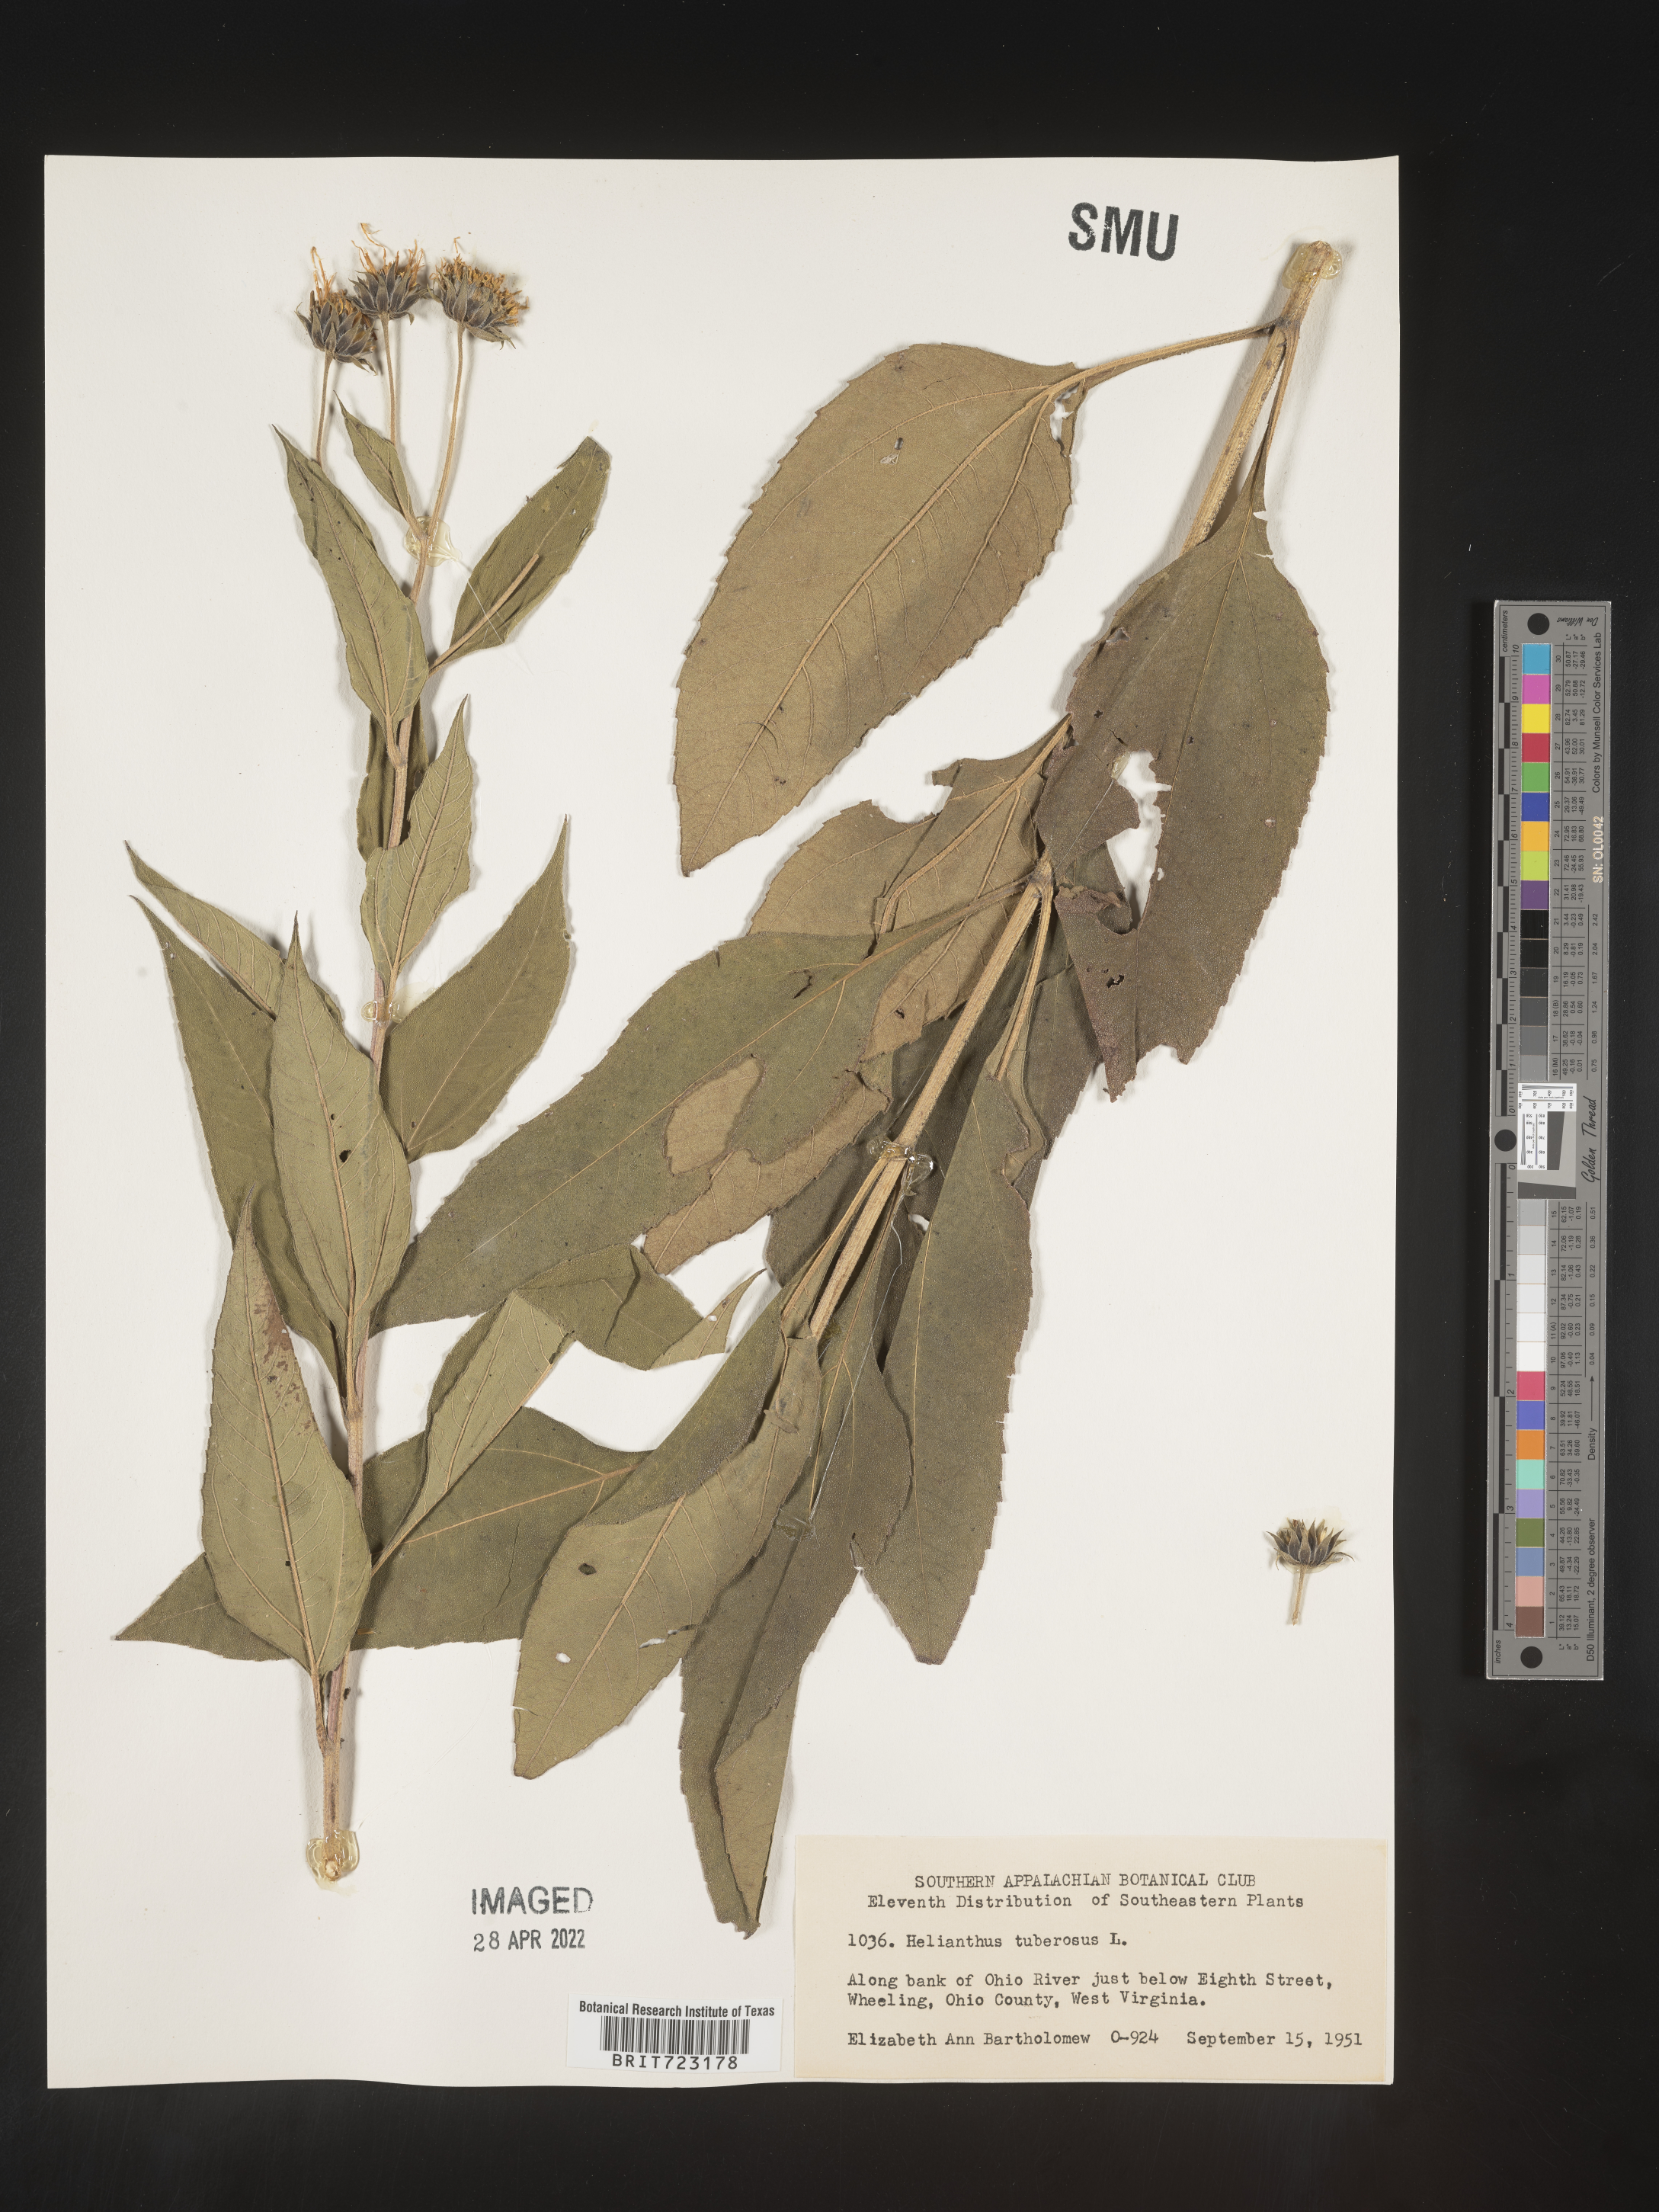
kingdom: Plantae
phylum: Tracheophyta
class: Magnoliopsida
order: Asterales
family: Asteraceae
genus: Helianthus
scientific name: Helianthus tuberosus
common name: Jerusalem artichoke
